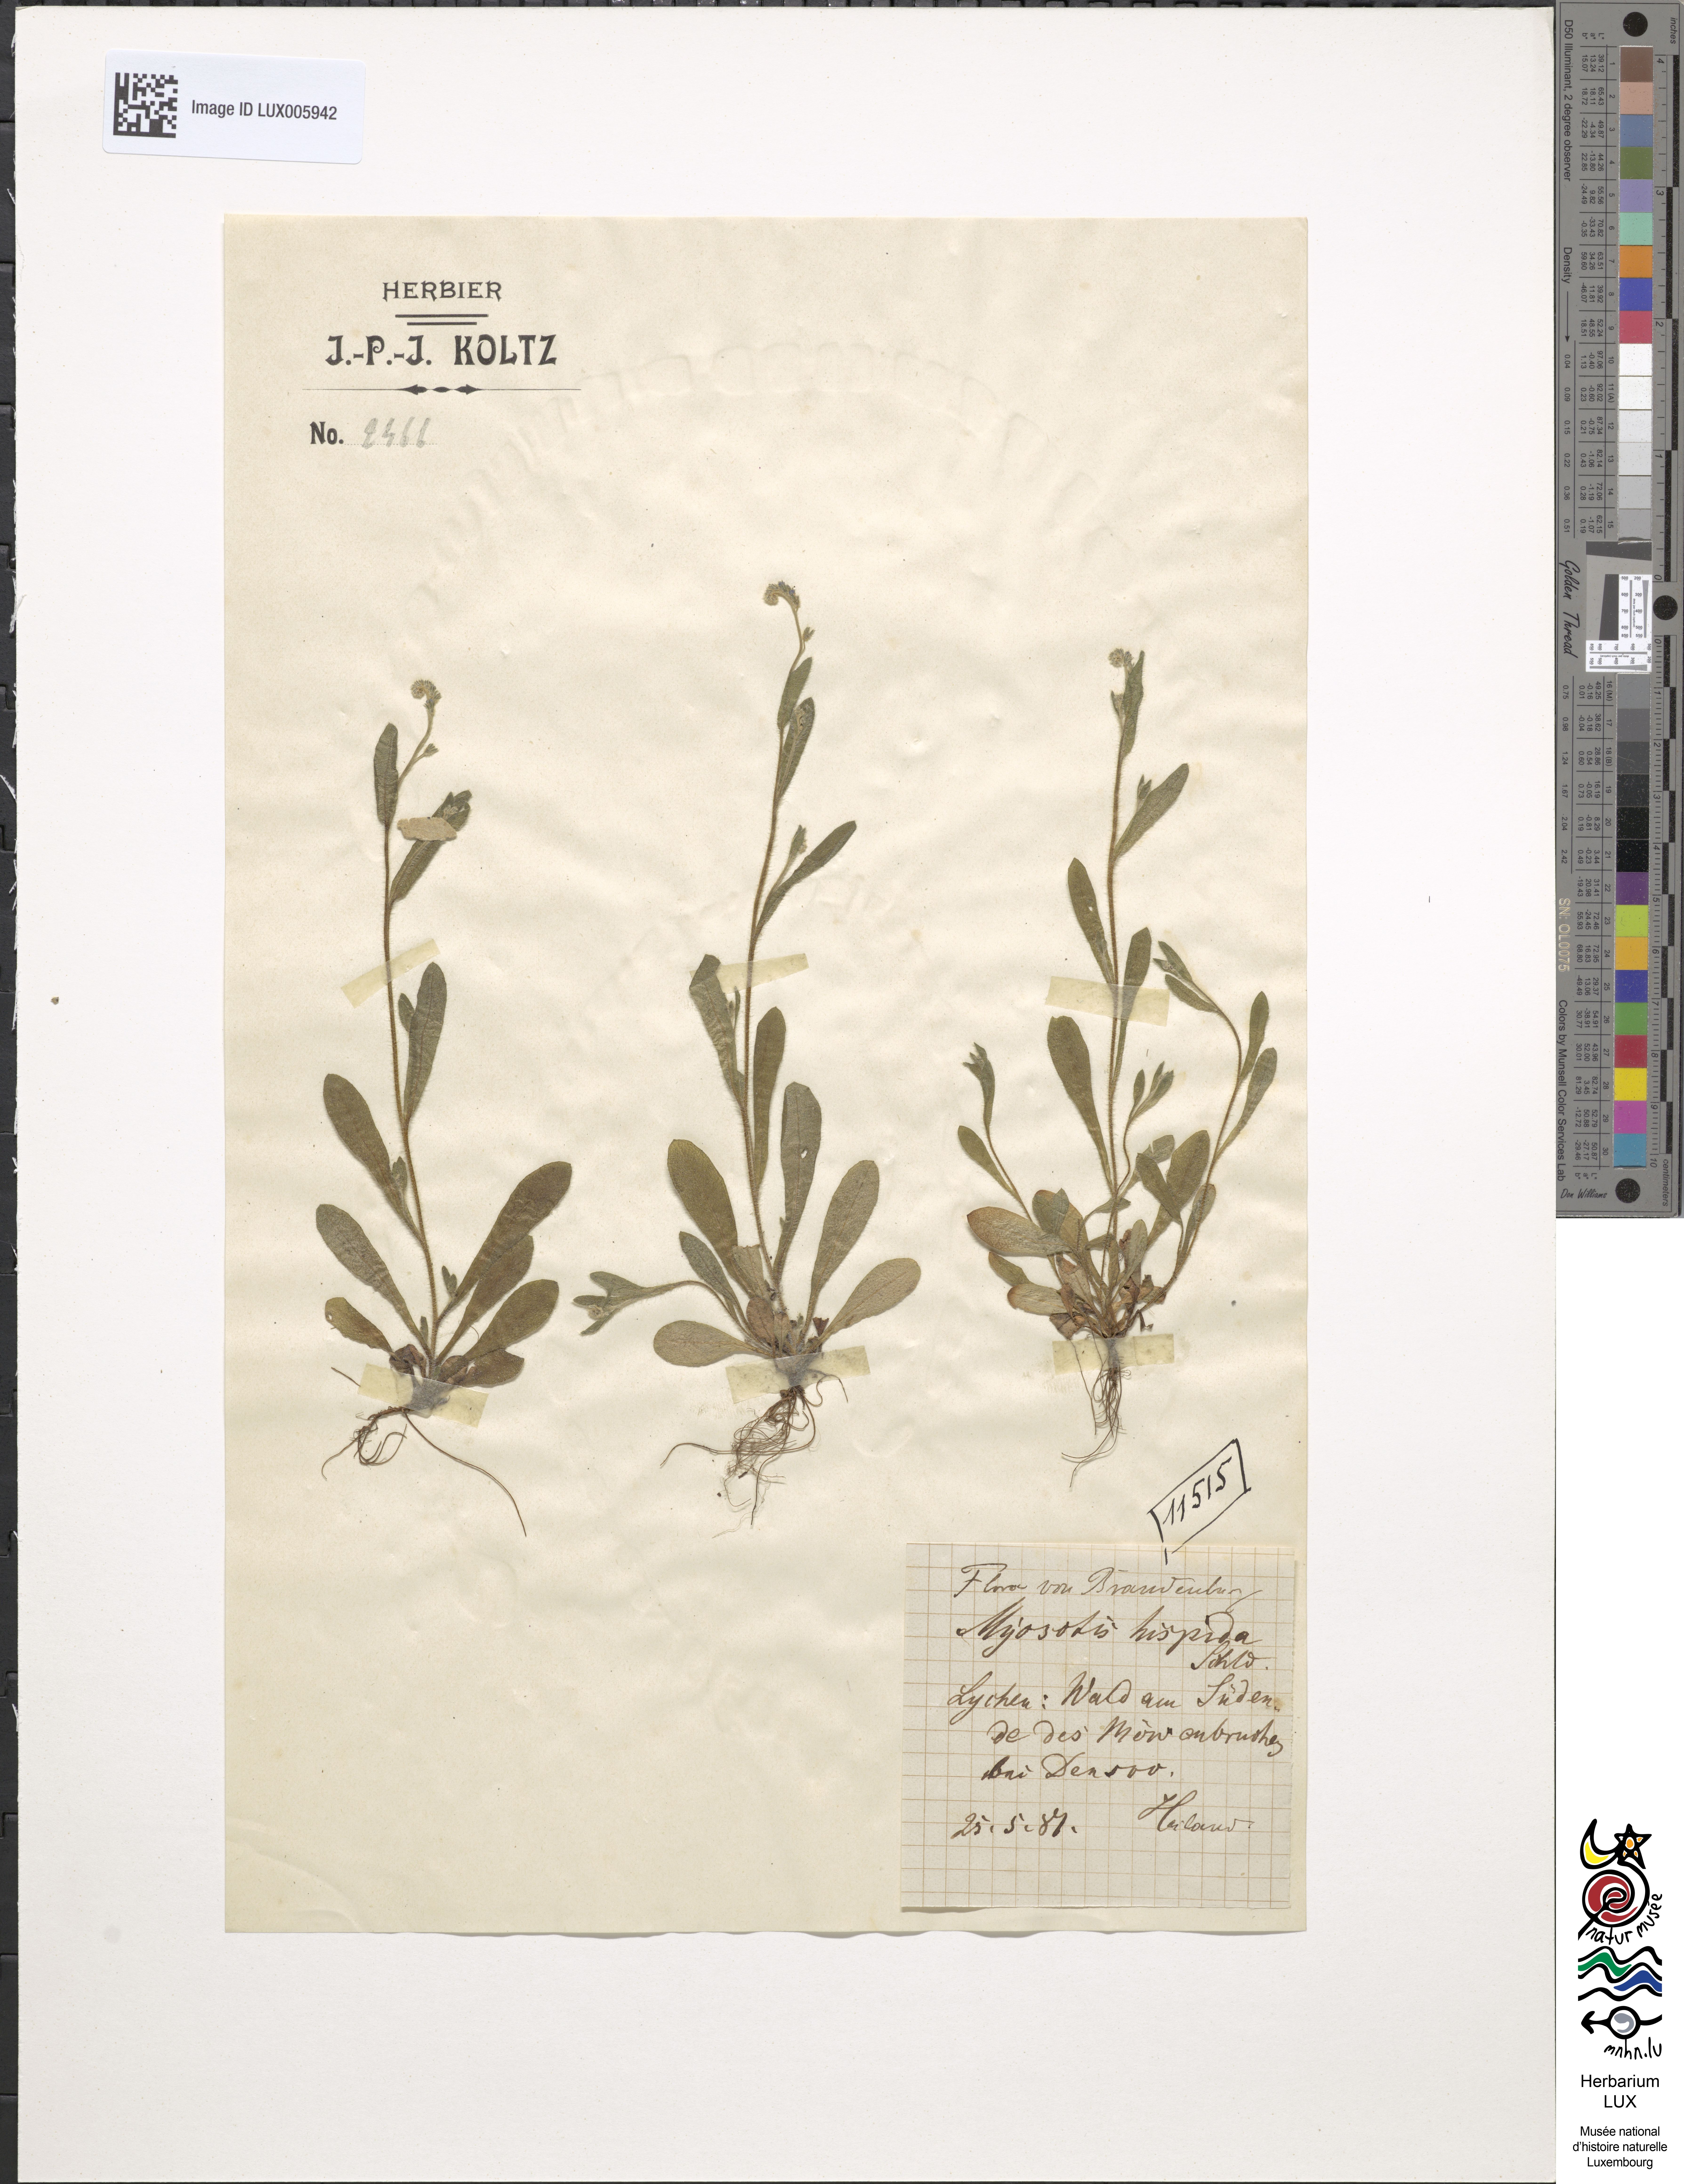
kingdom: Plantae
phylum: Tracheophyta
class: Magnoliopsida
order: Boraginales
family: Boraginaceae
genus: Myosotis
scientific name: Myosotis discolor
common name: Changing forget-me-not
